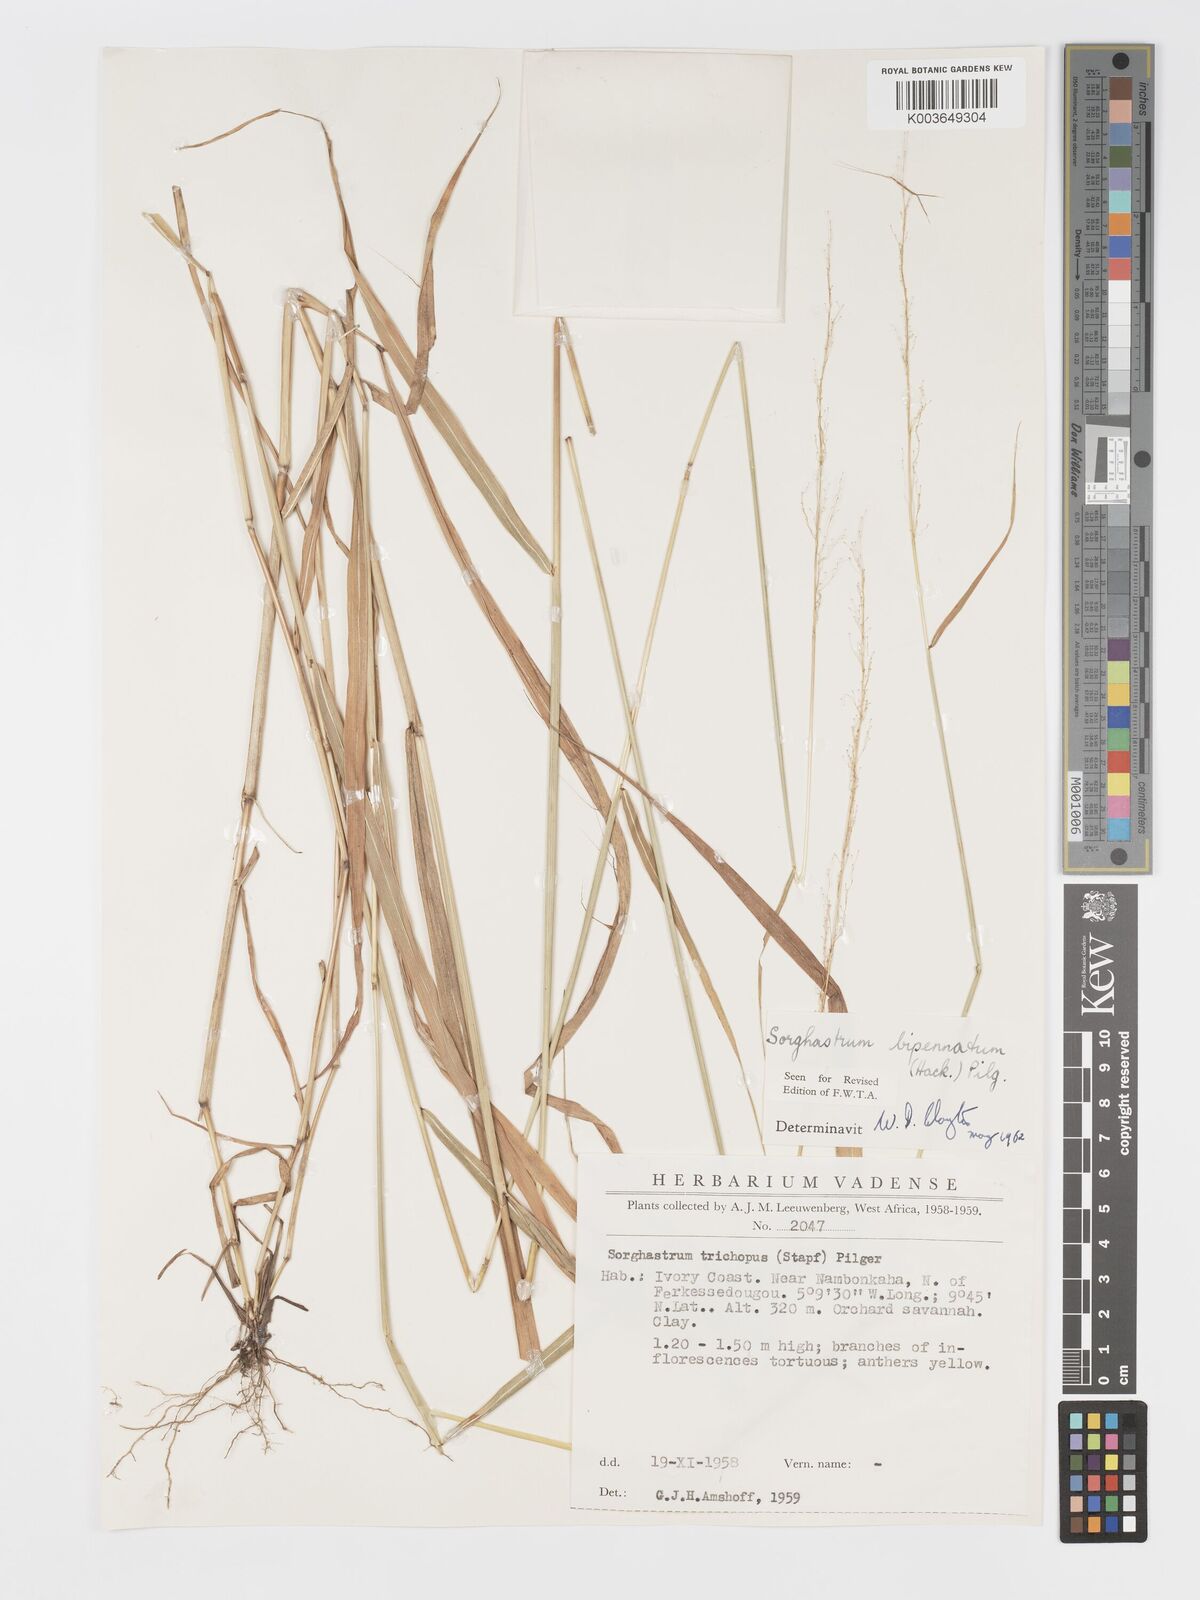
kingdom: Plantae
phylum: Tracheophyta
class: Liliopsida
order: Poales
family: Poaceae
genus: Sorghastrum
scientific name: Sorghastrum incompletum
